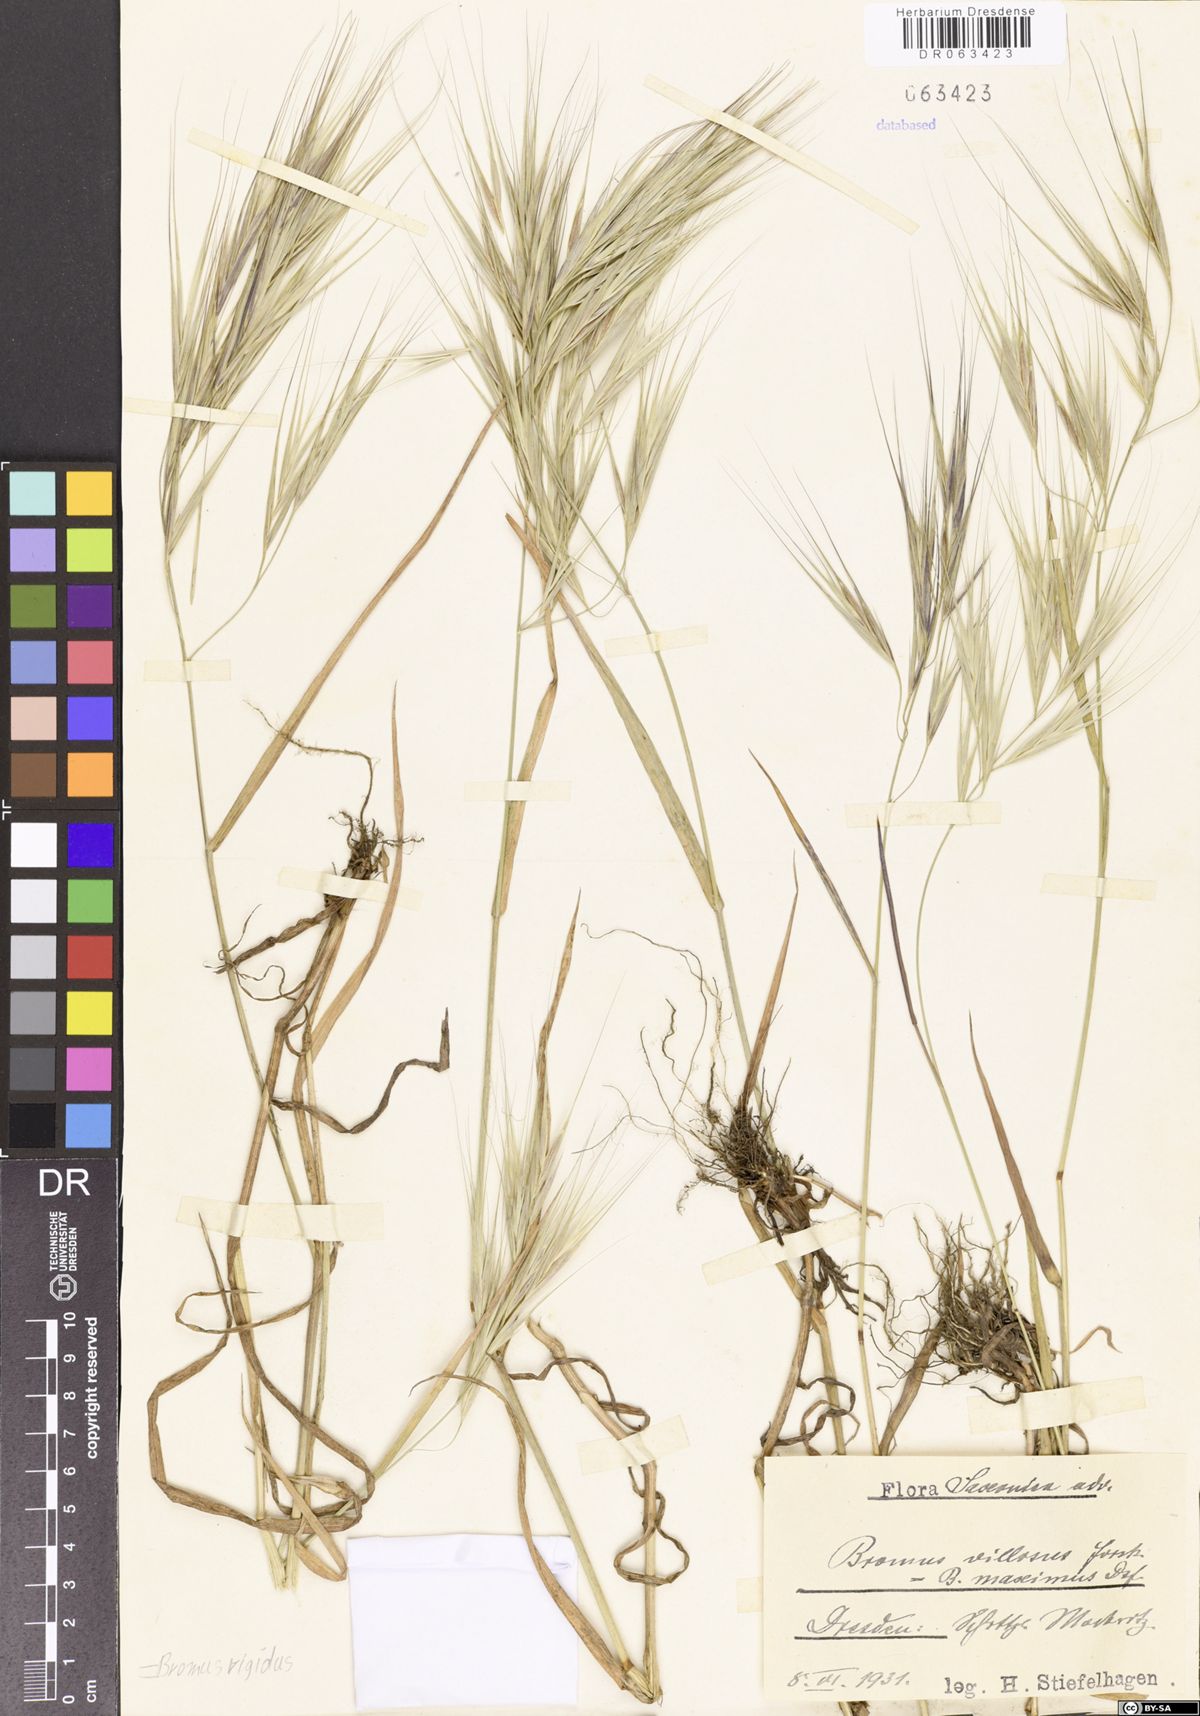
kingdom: Plantae
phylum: Tracheophyta
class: Liliopsida
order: Poales
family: Poaceae
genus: Bromus
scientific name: Bromus rigidus
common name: Ripgut brome
